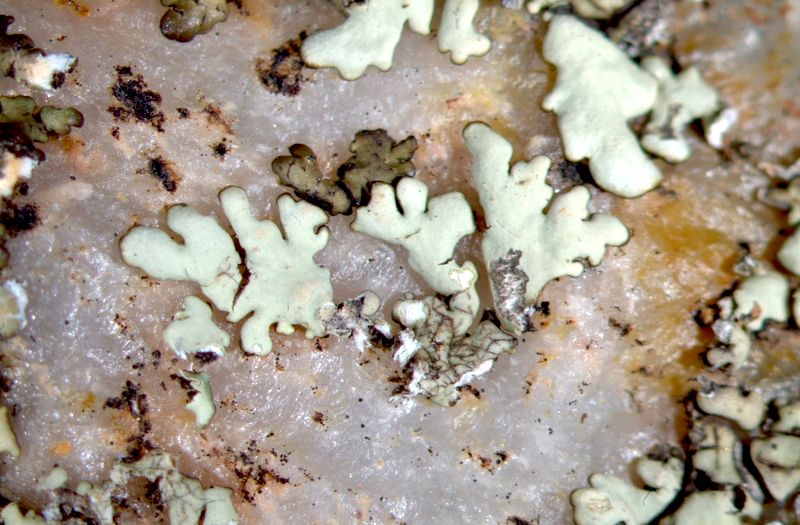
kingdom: Fungi
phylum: Ascomycota
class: Lecanoromycetes
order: Lecanorales
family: Parmeliaceae
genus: Parmelia
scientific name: Parmelia
